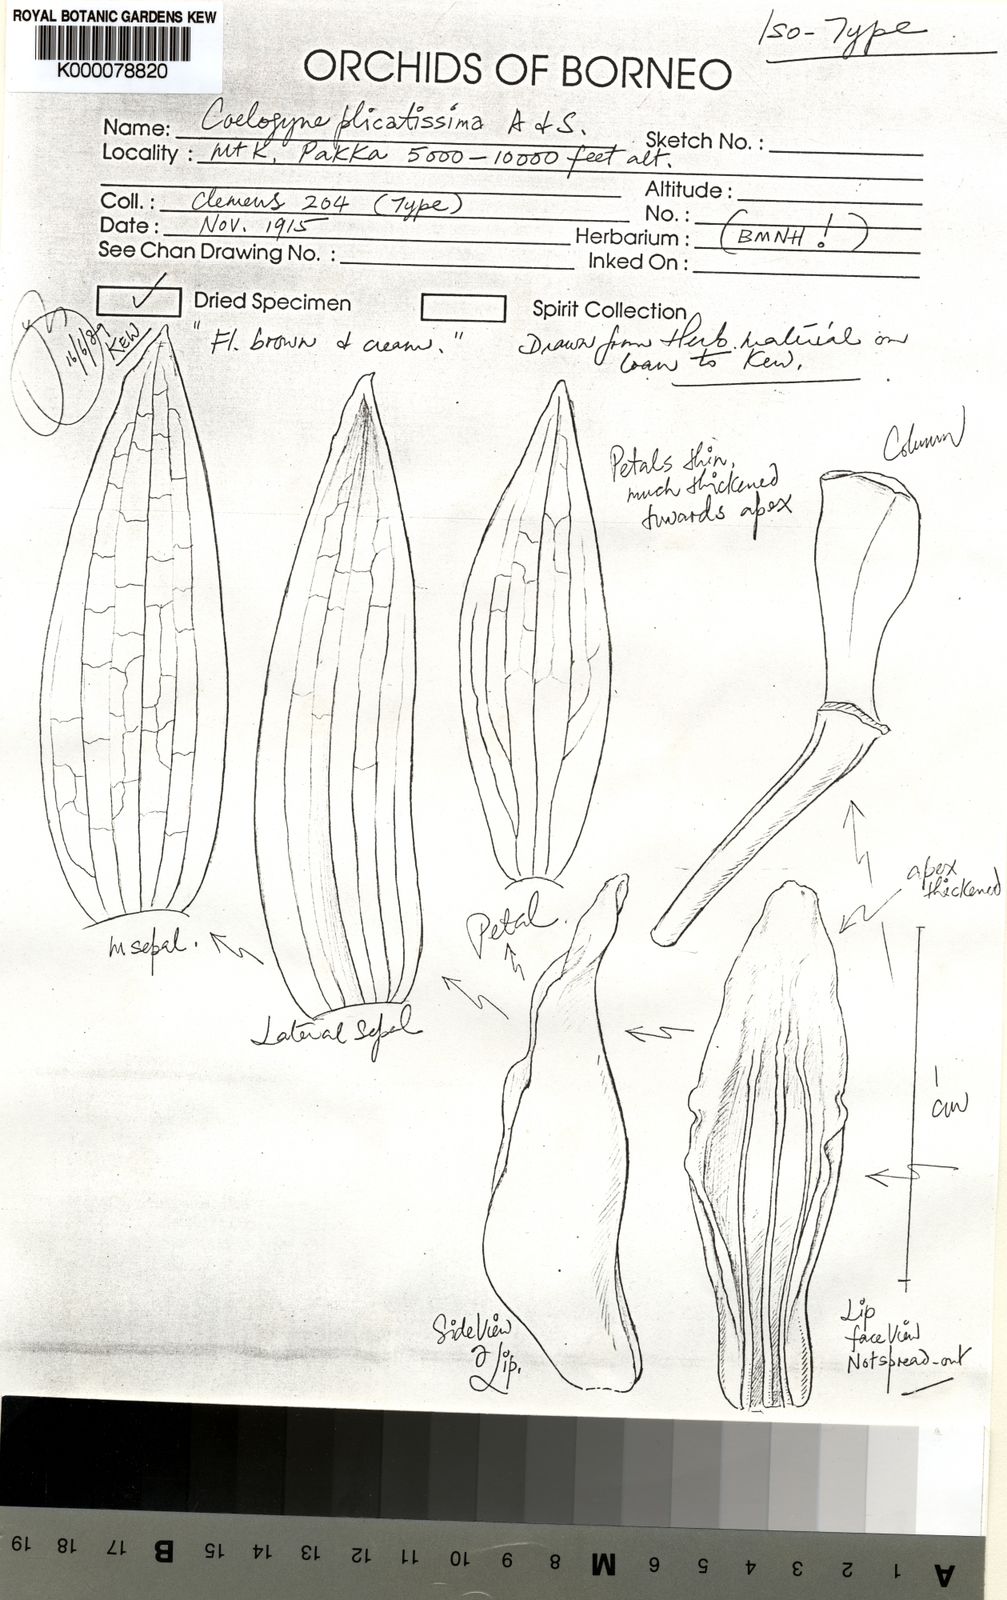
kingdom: Plantae
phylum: Tracheophyta
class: Liliopsida
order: Asparagales
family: Orchidaceae
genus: Coelogyne
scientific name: Coelogyne plicatissima
